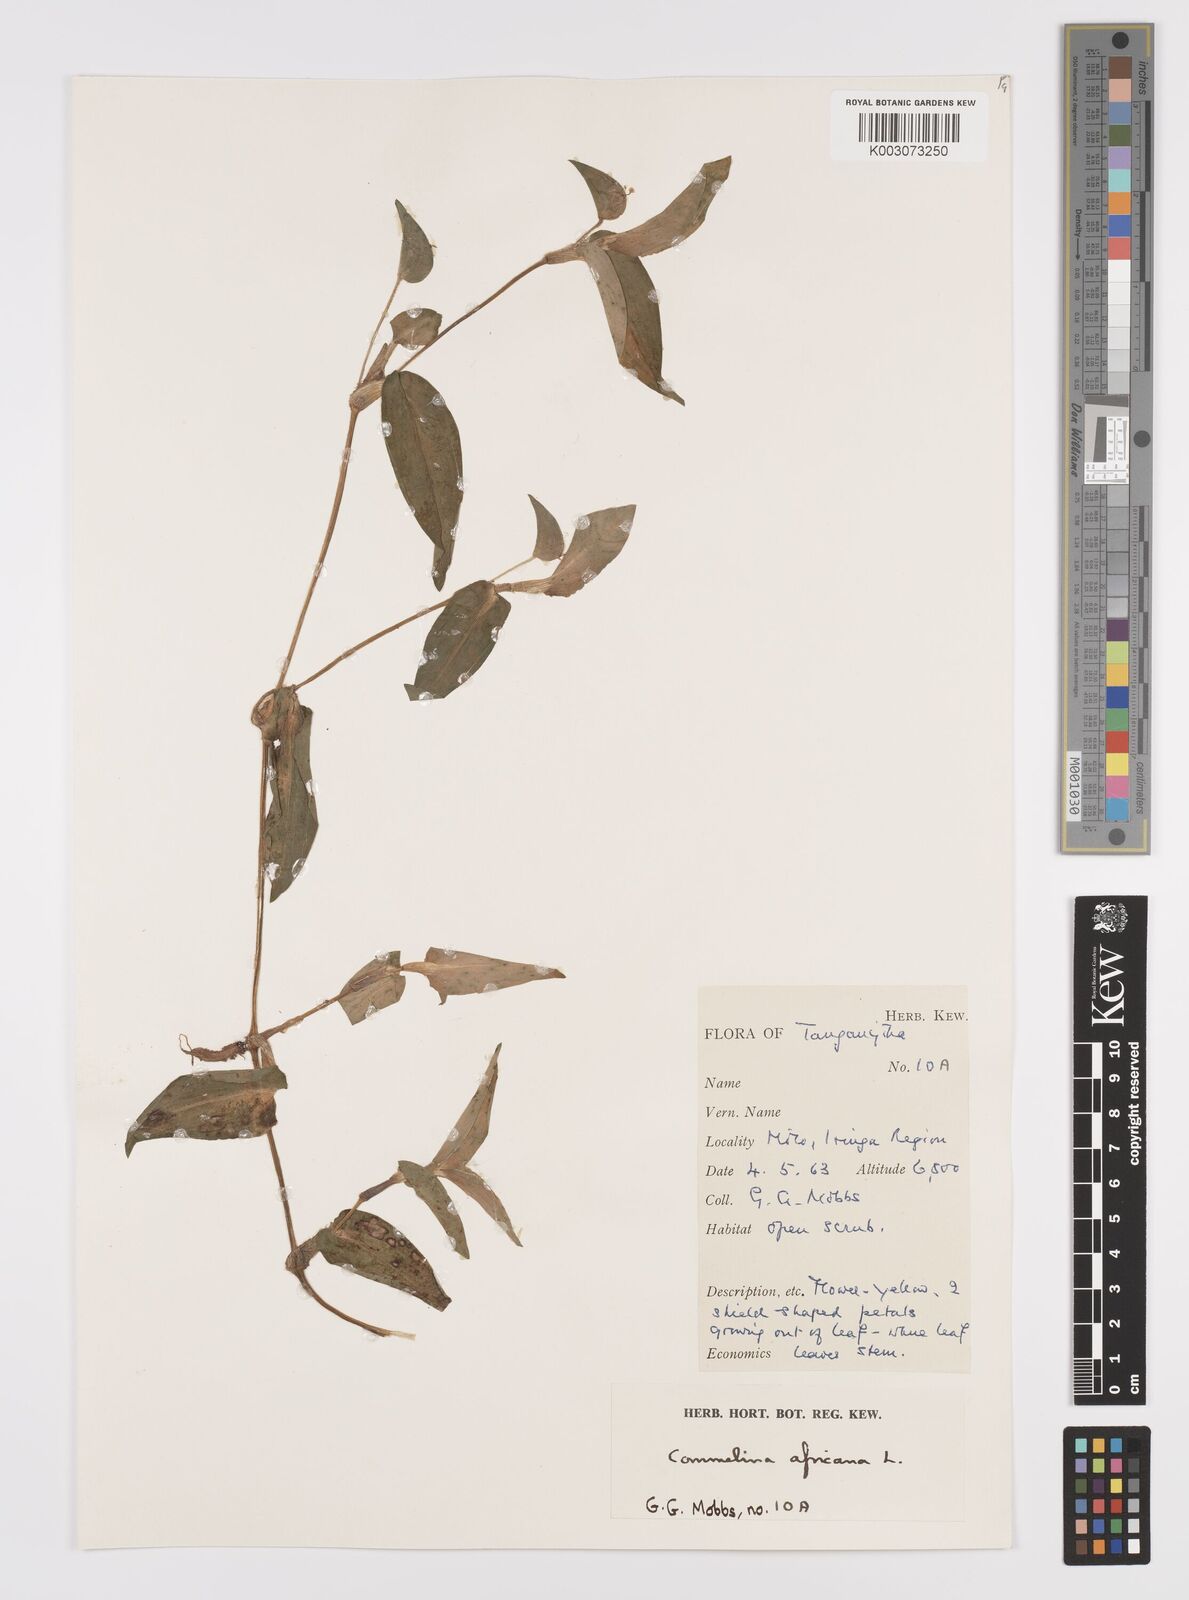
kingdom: Plantae
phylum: Tracheophyta
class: Liliopsida
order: Commelinales
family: Commelinaceae
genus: Commelina
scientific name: Commelina africana
